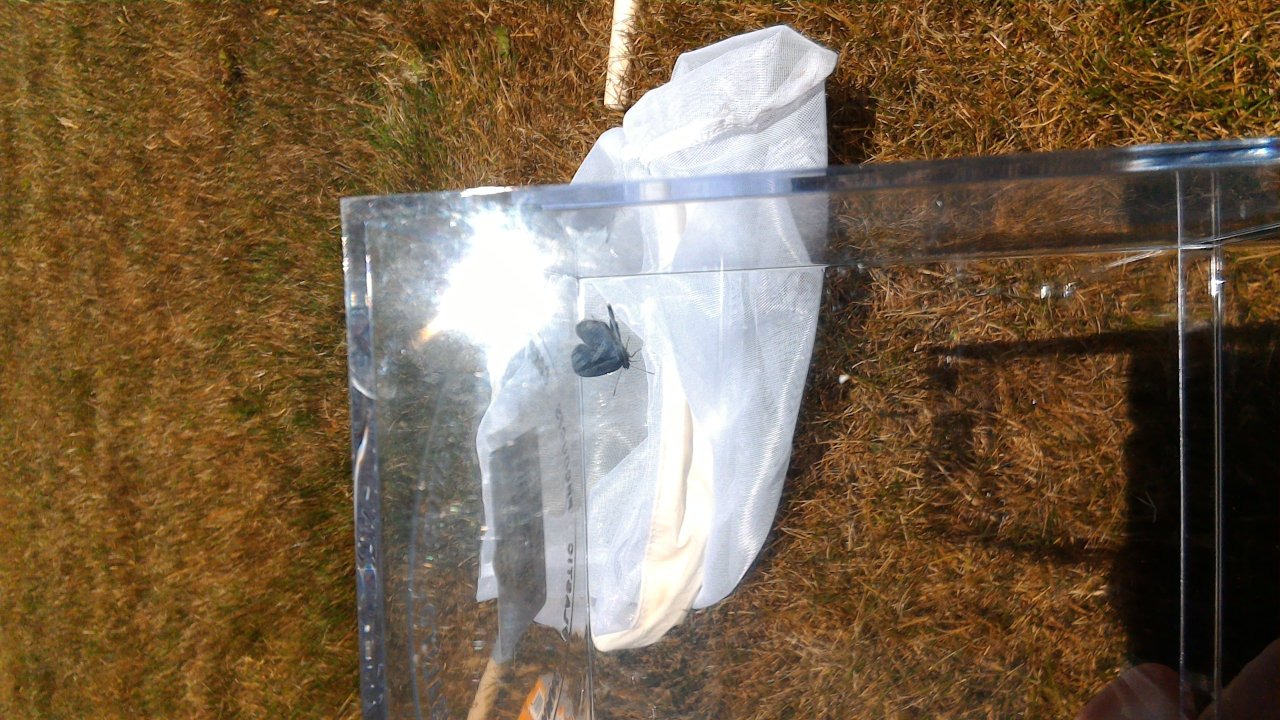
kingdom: Animalia
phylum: Arthropoda
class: Insecta
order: Lepidoptera
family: Lycaenidae
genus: Elkalyce
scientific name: Elkalyce comyntas
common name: Eastern Tailed-Blue
